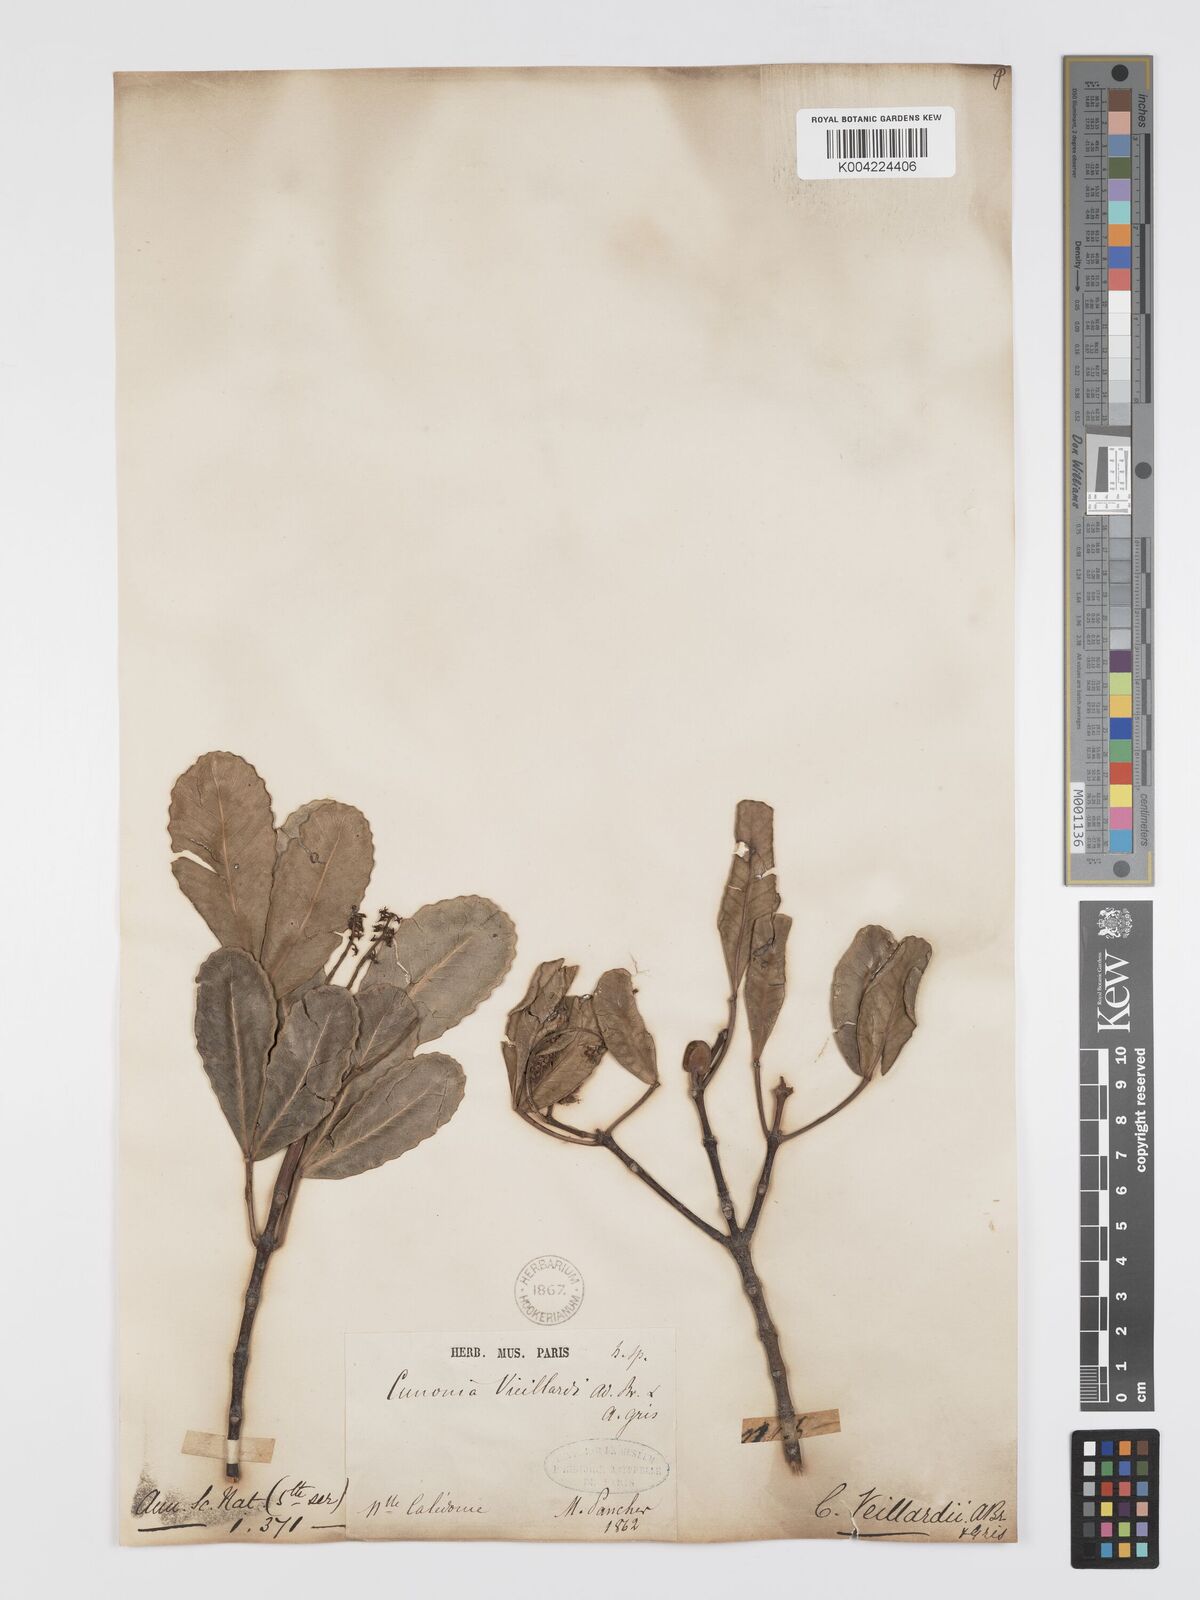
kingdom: Plantae
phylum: Tracheophyta
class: Magnoliopsida
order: Oxalidales
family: Cunoniaceae
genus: Cunonia
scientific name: Cunonia vieillardii
